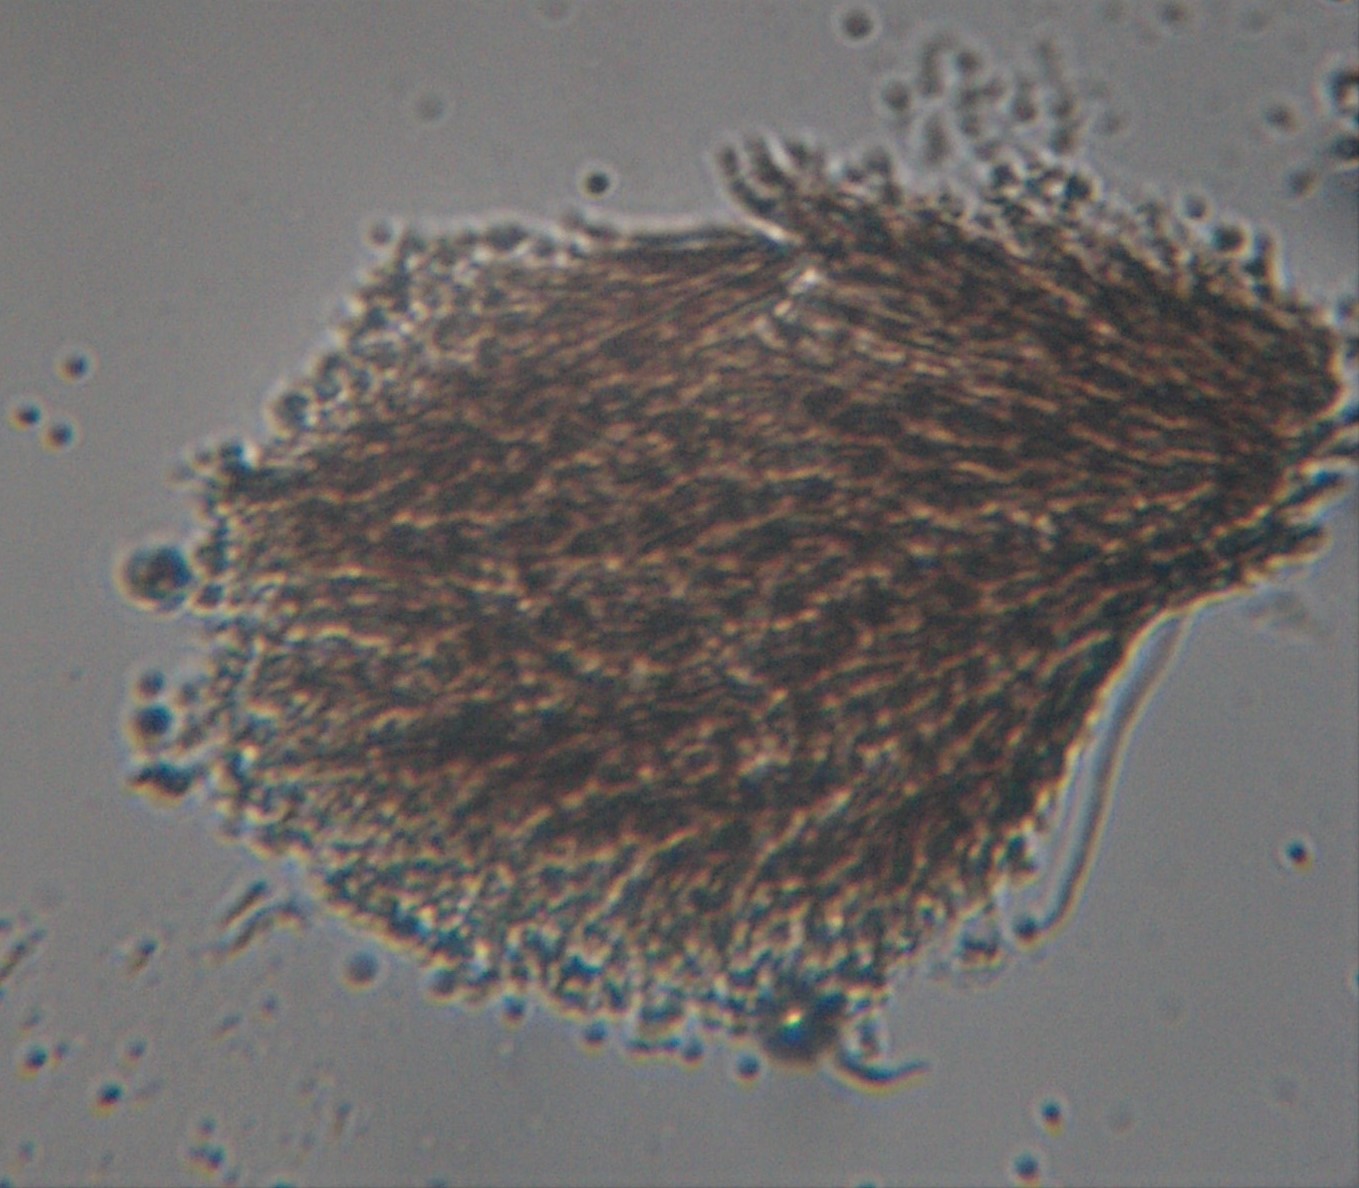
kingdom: Fungi
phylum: Ascomycota
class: Sordariomycetes
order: Microascales
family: Microascaceae
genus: Cephalotrichum
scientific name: Cephalotrichum stemonitis
